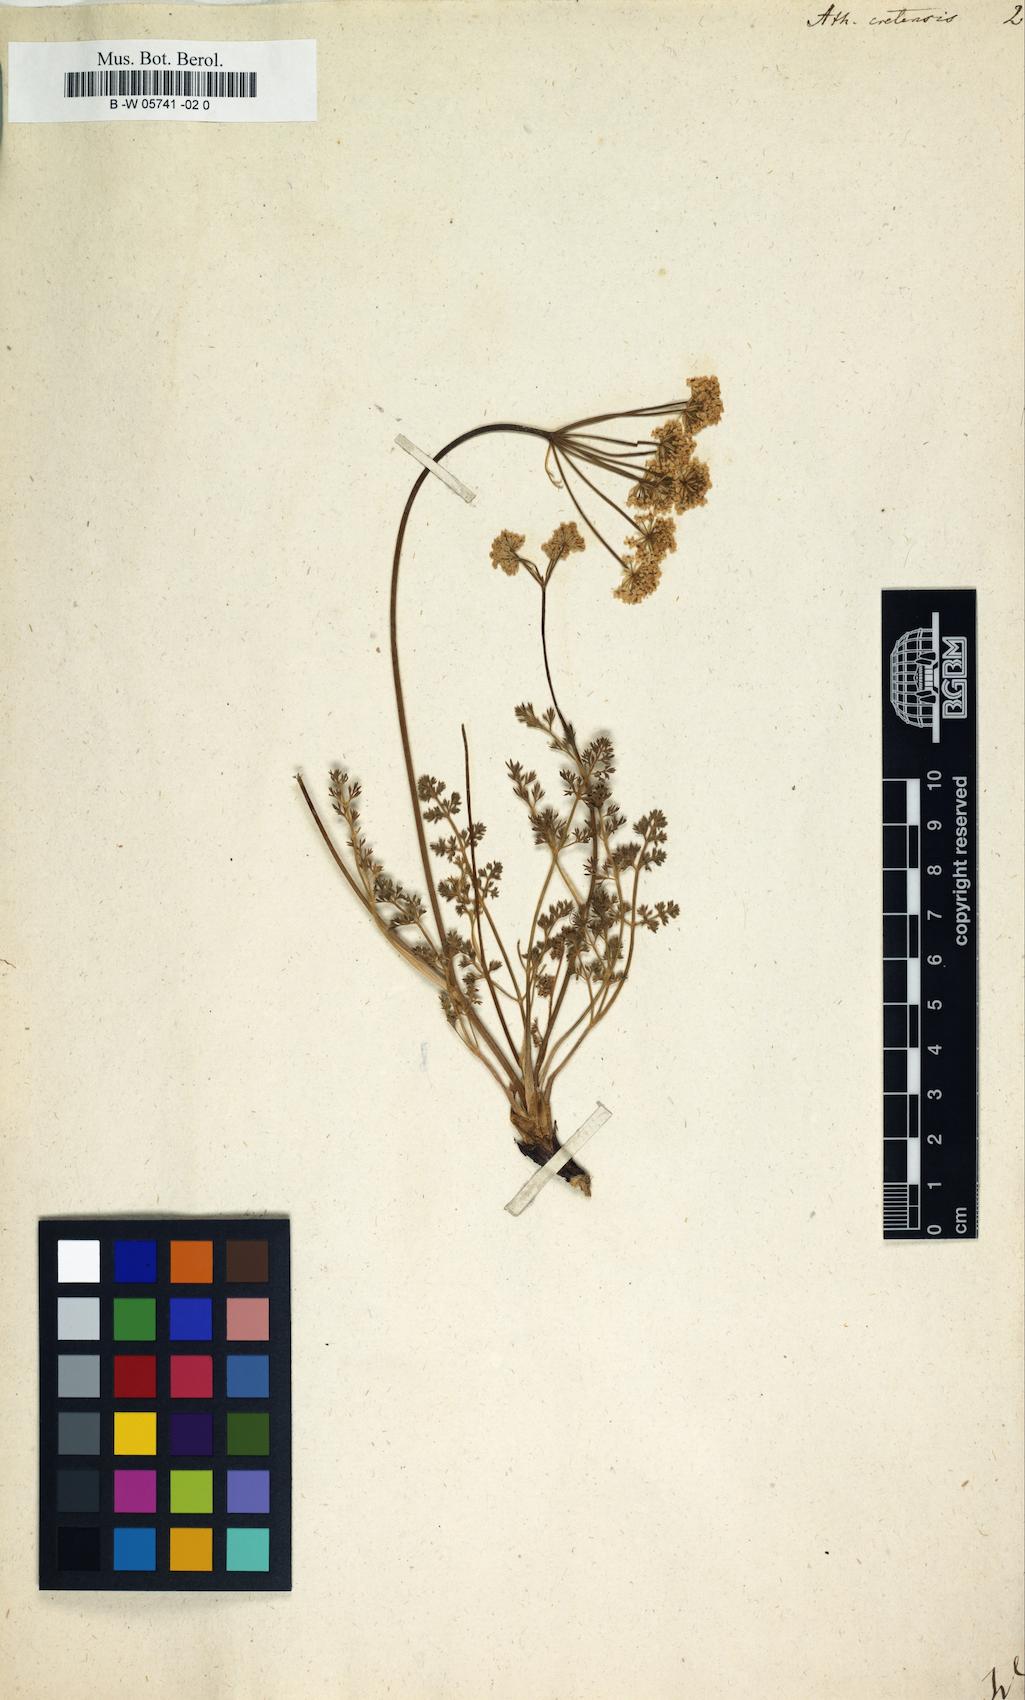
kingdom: Plantae
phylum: Tracheophyta
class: Magnoliopsida
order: Apiales
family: Apiaceae
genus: Athamanta
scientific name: Athamanta cretensis
